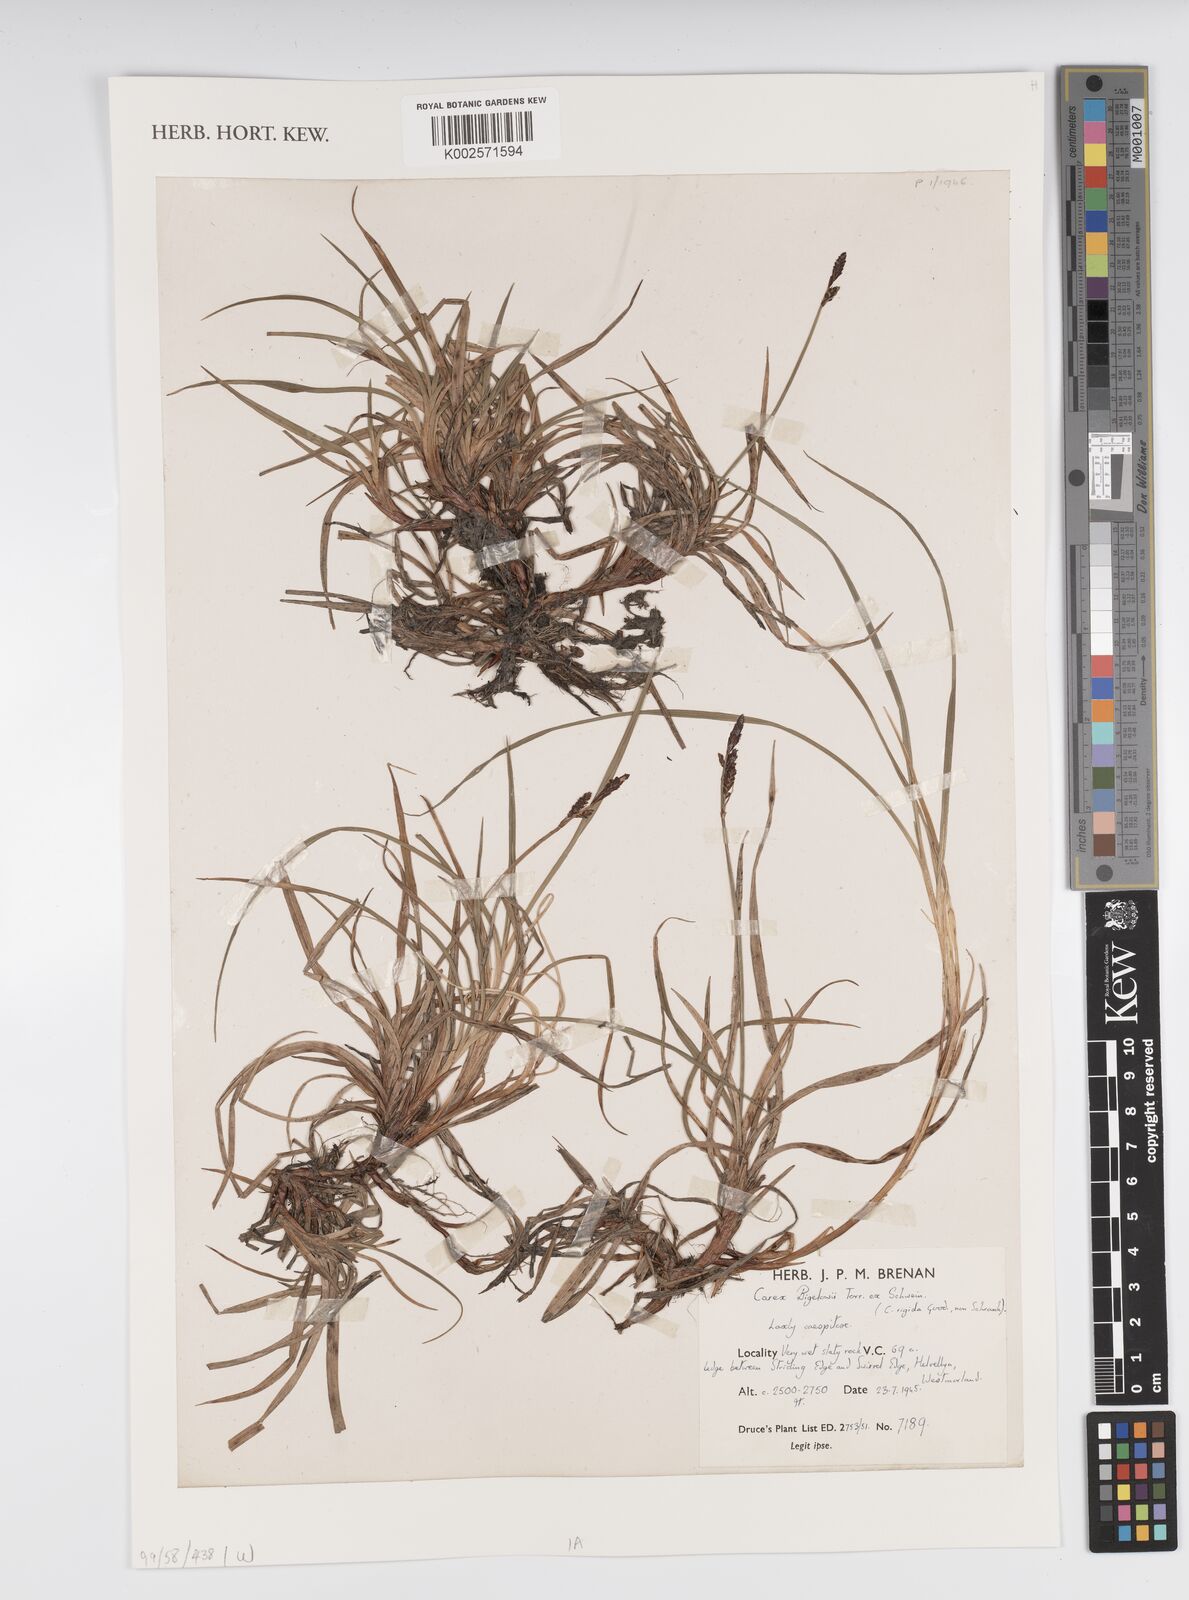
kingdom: Plantae
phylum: Tracheophyta
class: Liliopsida
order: Poales
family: Cyperaceae
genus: Carex
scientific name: Carex caryophyllea
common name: Spring sedge
